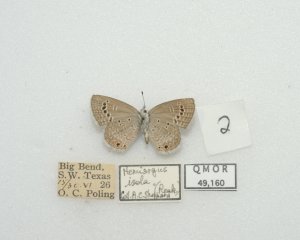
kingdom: Animalia
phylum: Arthropoda
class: Insecta
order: Lepidoptera
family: Lycaenidae
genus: Hemiargus
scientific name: Hemiargus ceraunus
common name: Ceraunus Blue
